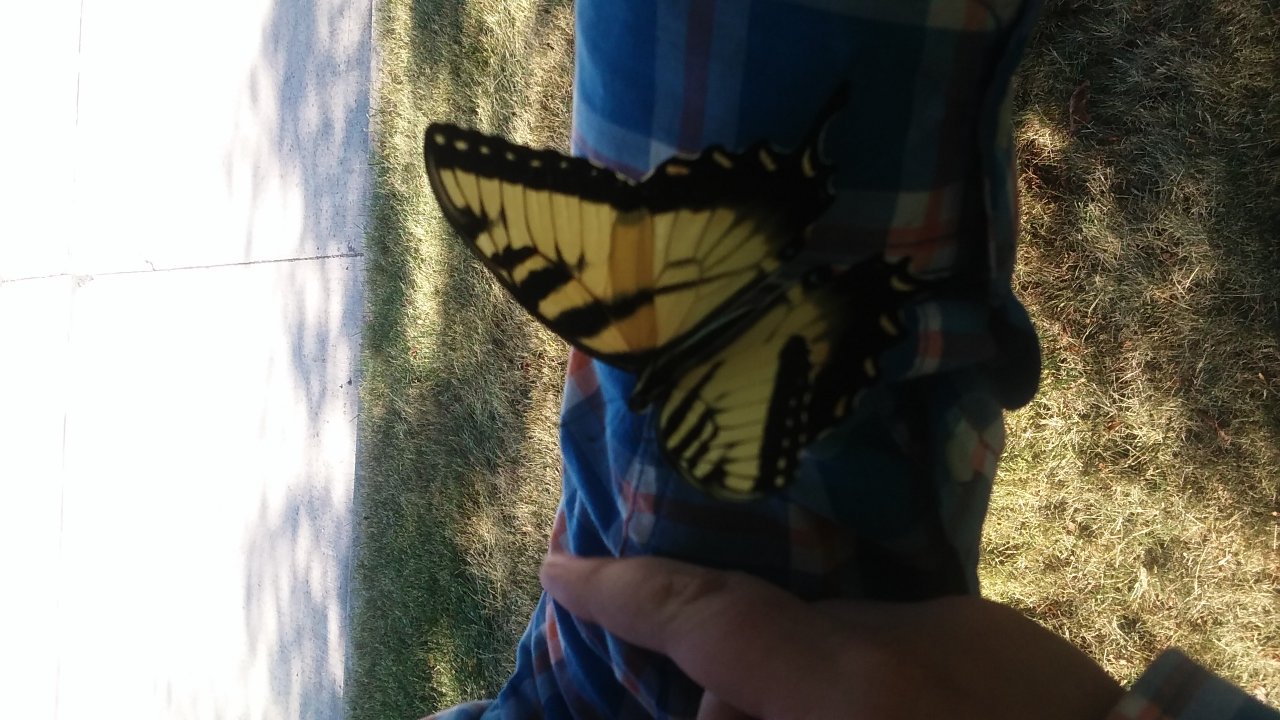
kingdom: Animalia
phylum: Arthropoda
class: Insecta
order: Lepidoptera
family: Papilionidae
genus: Pterourus
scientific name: Pterourus glaucus
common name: Eastern Tiger Swallowtail
